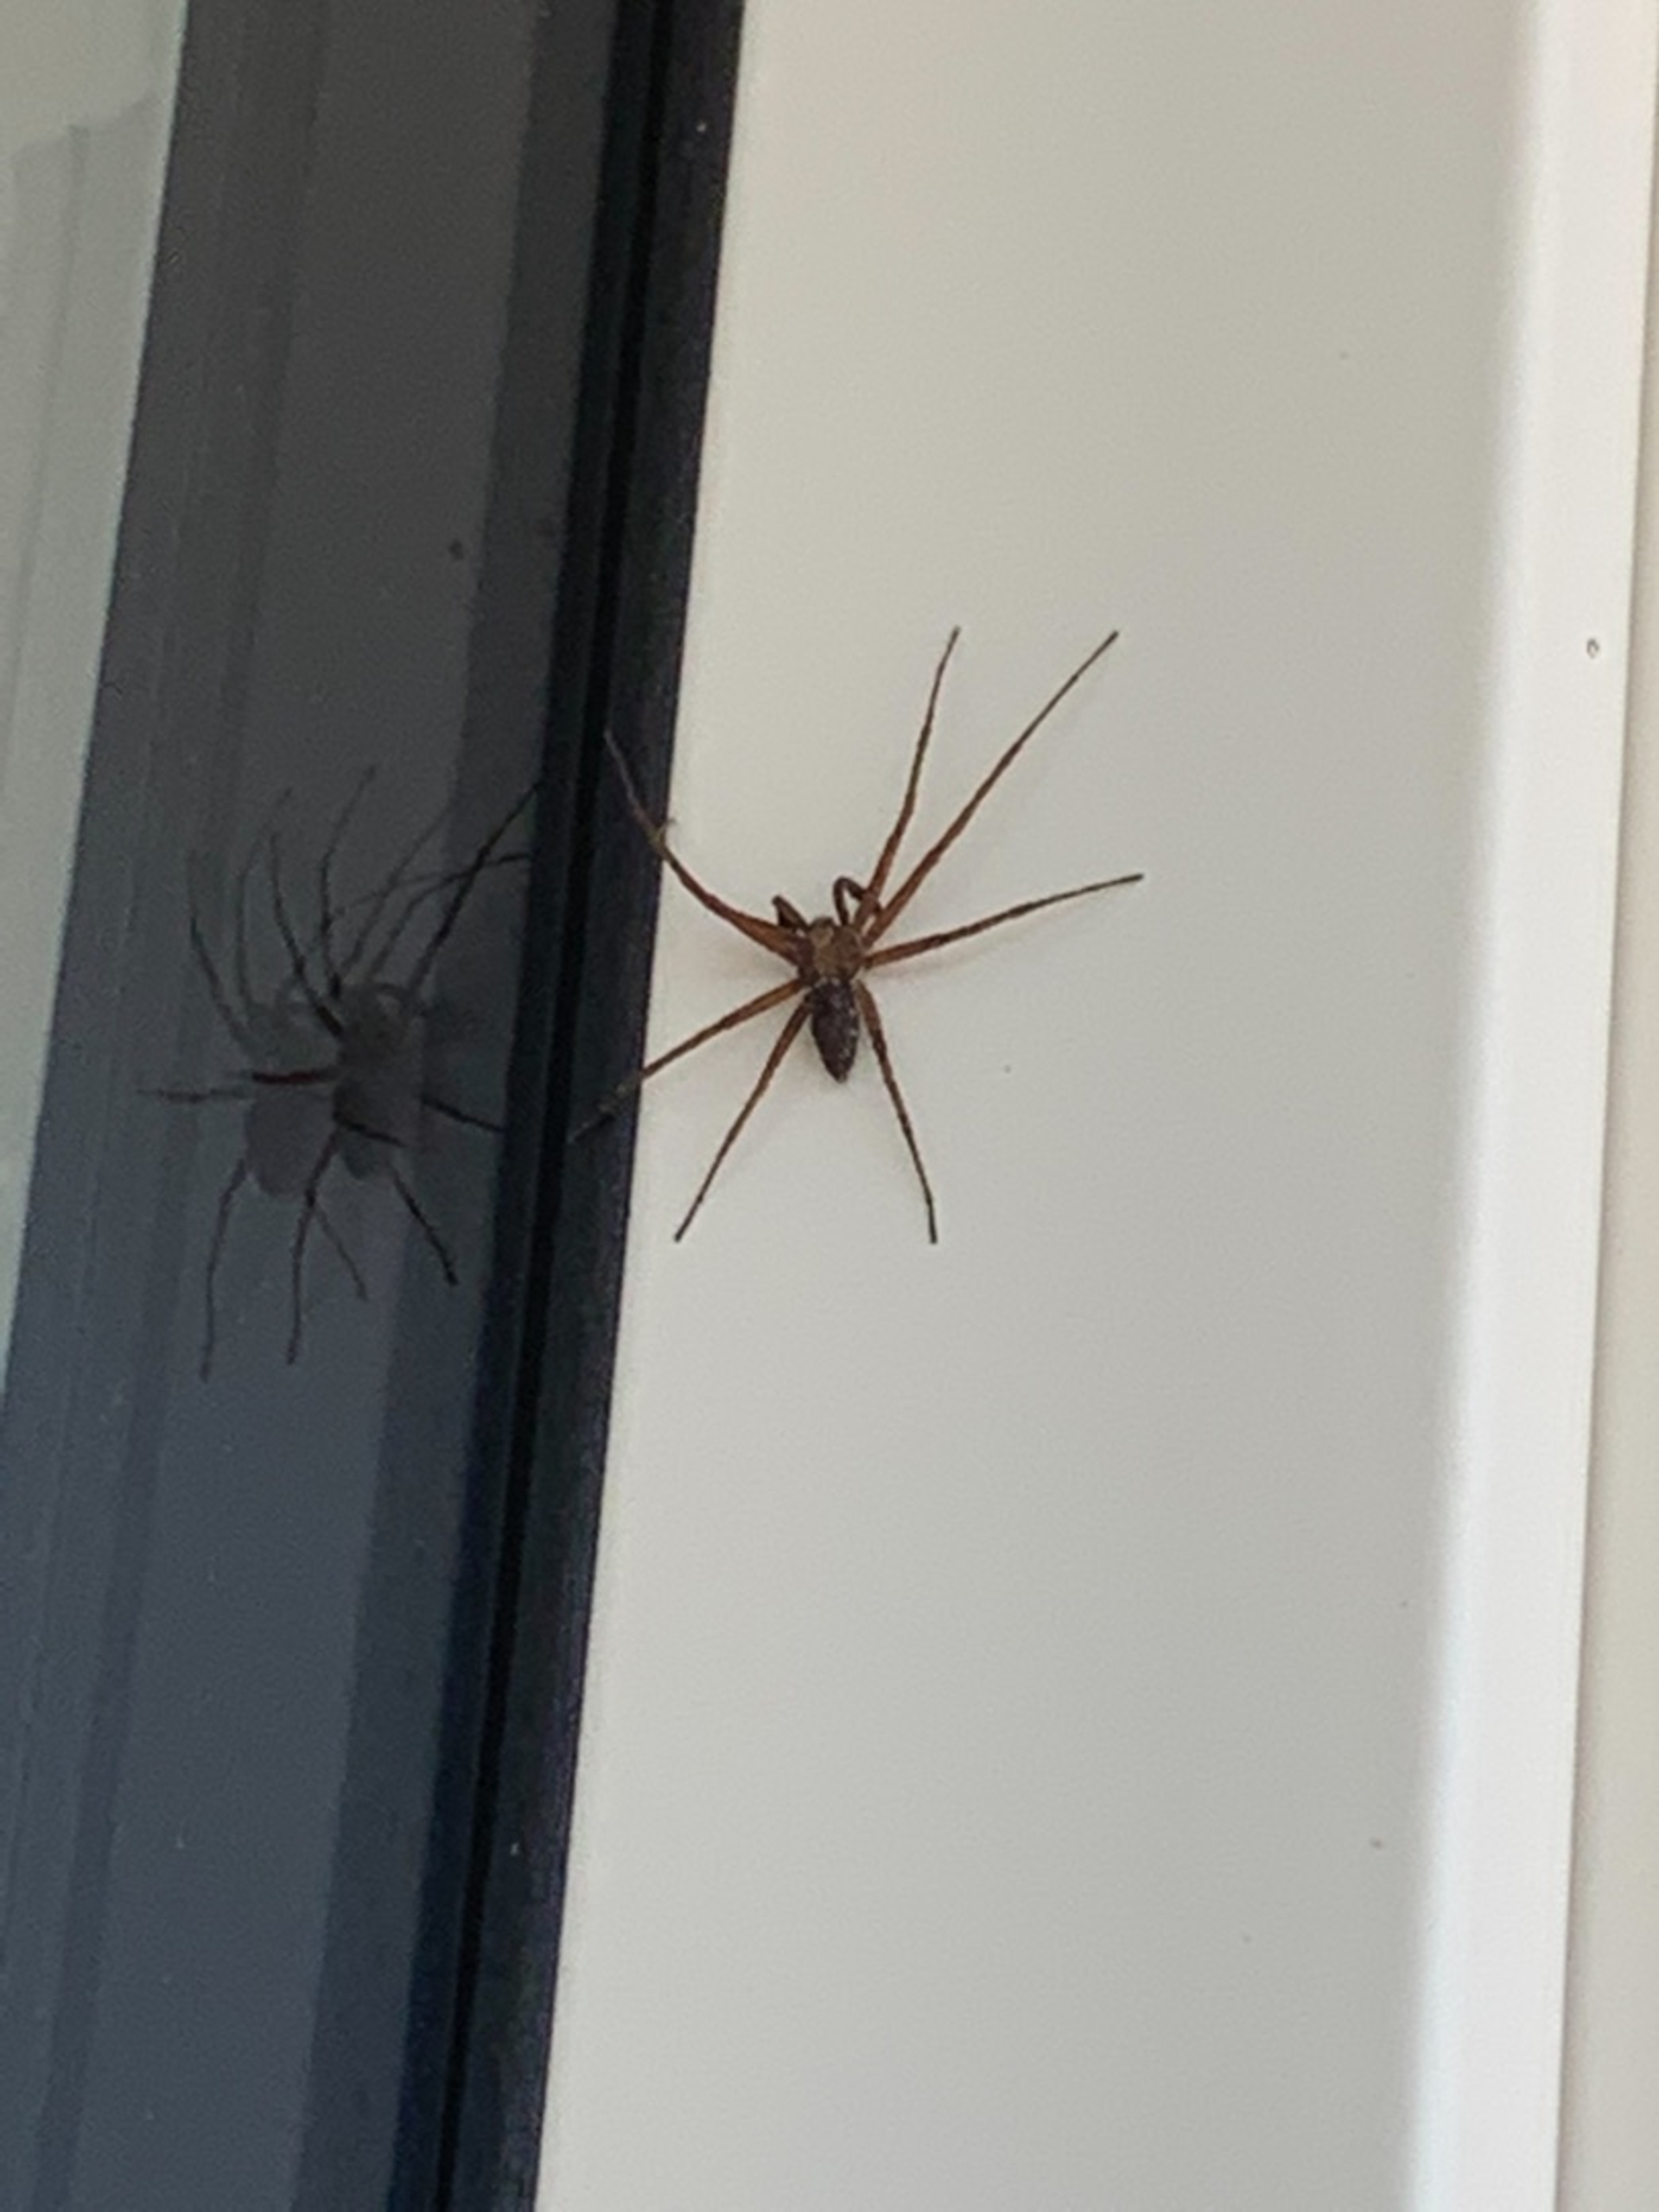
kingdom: Animalia
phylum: Arthropoda
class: Arachnida
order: Araneae
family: Philodromidae
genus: Philodromus
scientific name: Philodromus
